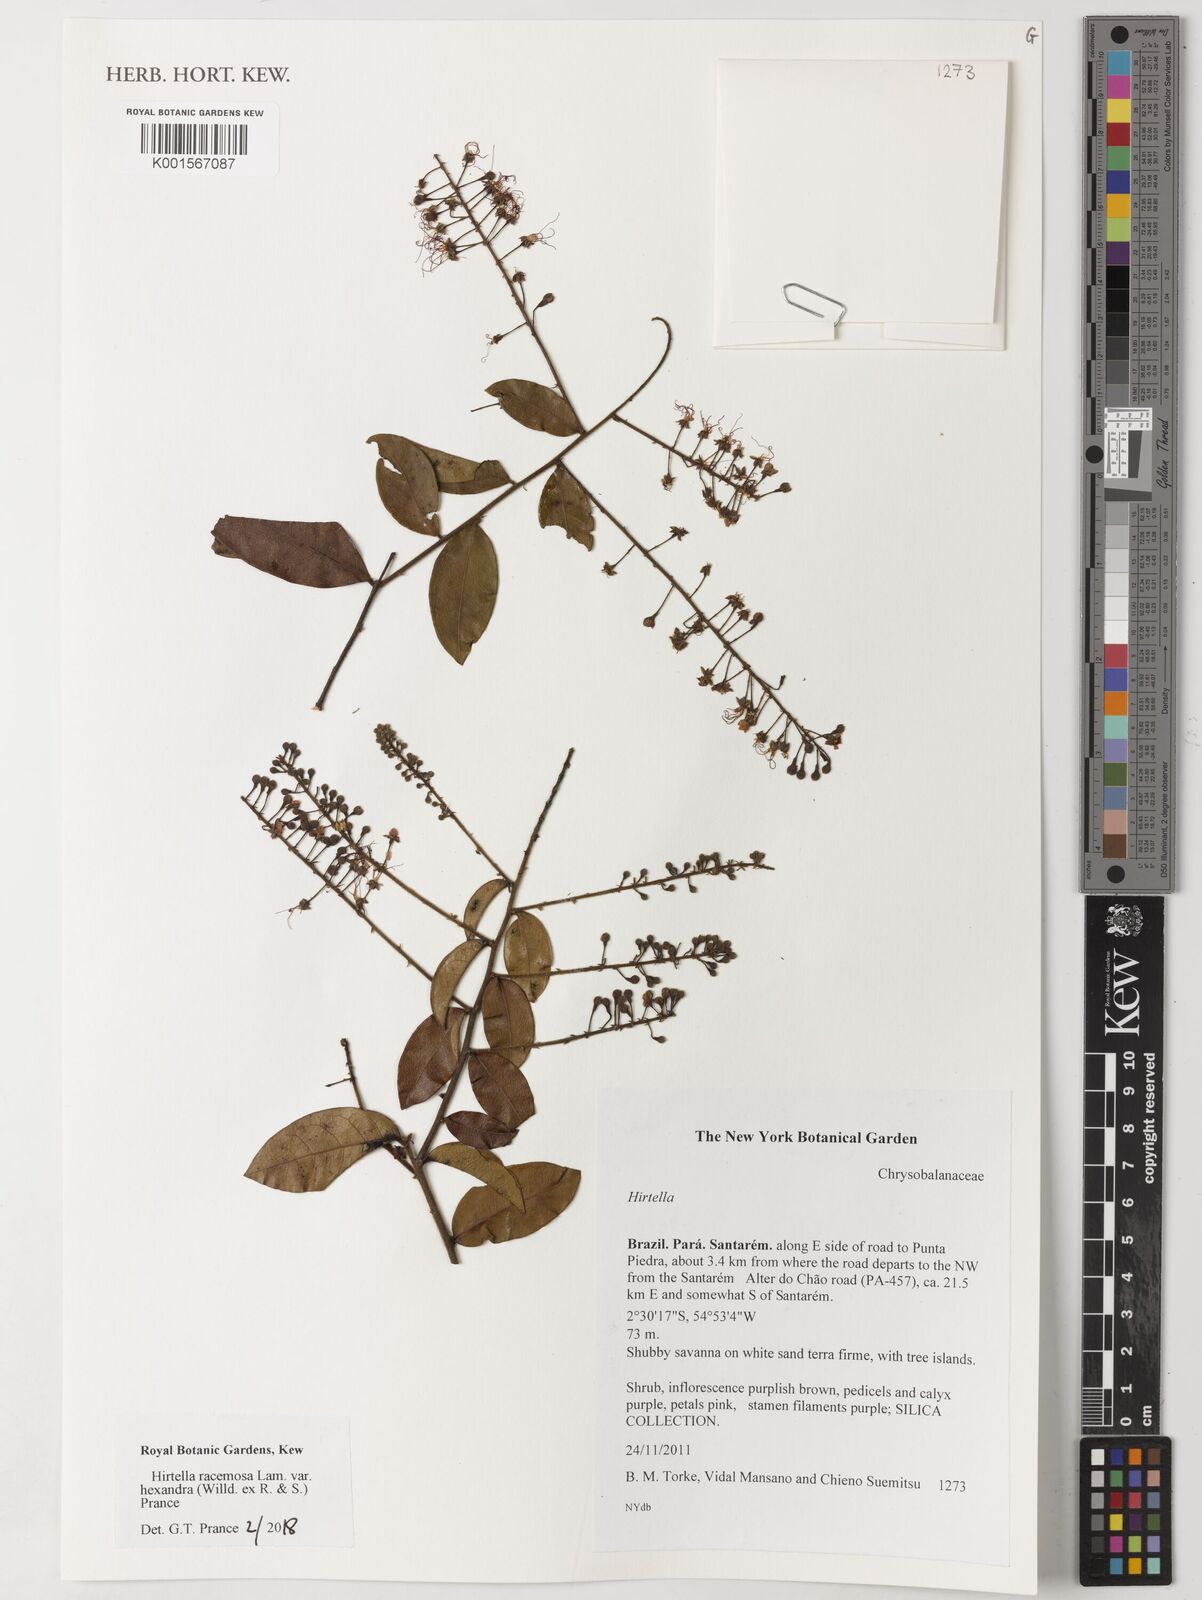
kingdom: Plantae
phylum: Tracheophyta
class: Magnoliopsida
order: Malpighiales
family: Chrysobalanaceae
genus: Hirtella
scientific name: Hirtella racemosa
